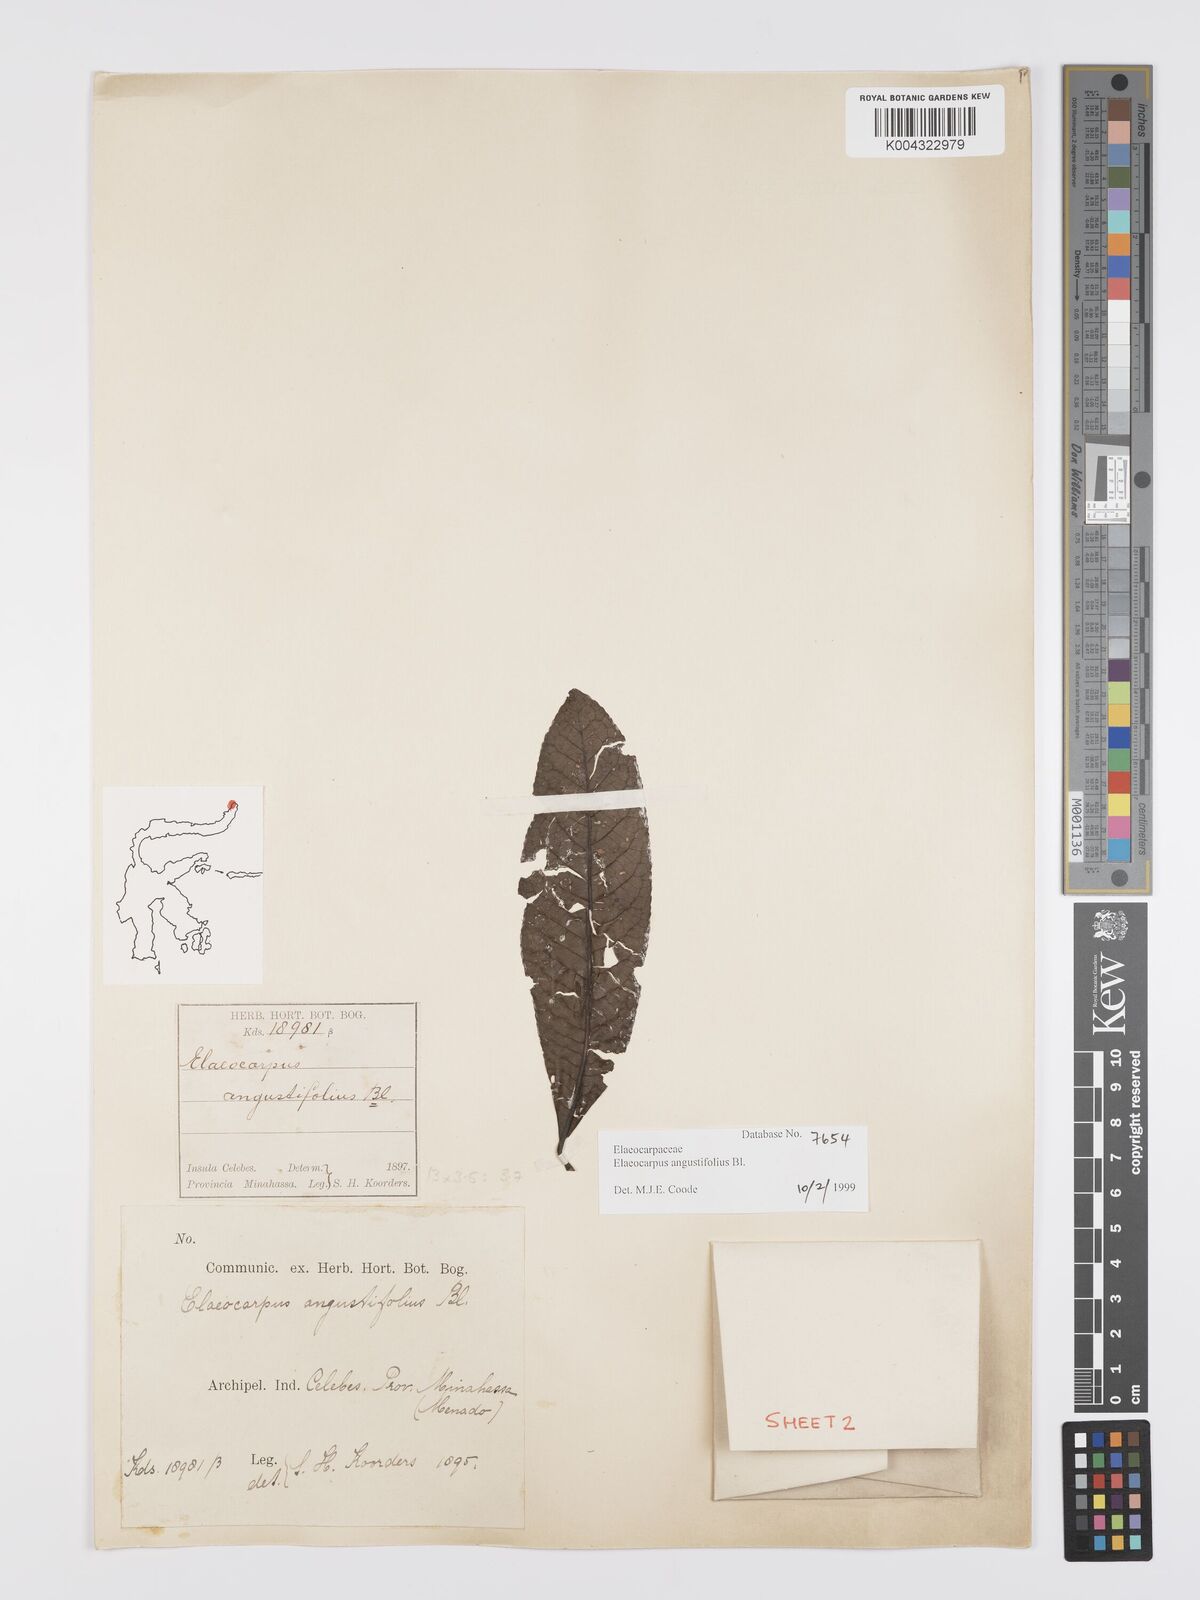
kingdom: Plantae
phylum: Tracheophyta
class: Magnoliopsida
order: Oxalidales
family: Elaeocarpaceae
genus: Elaeocarpus
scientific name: Elaeocarpus
